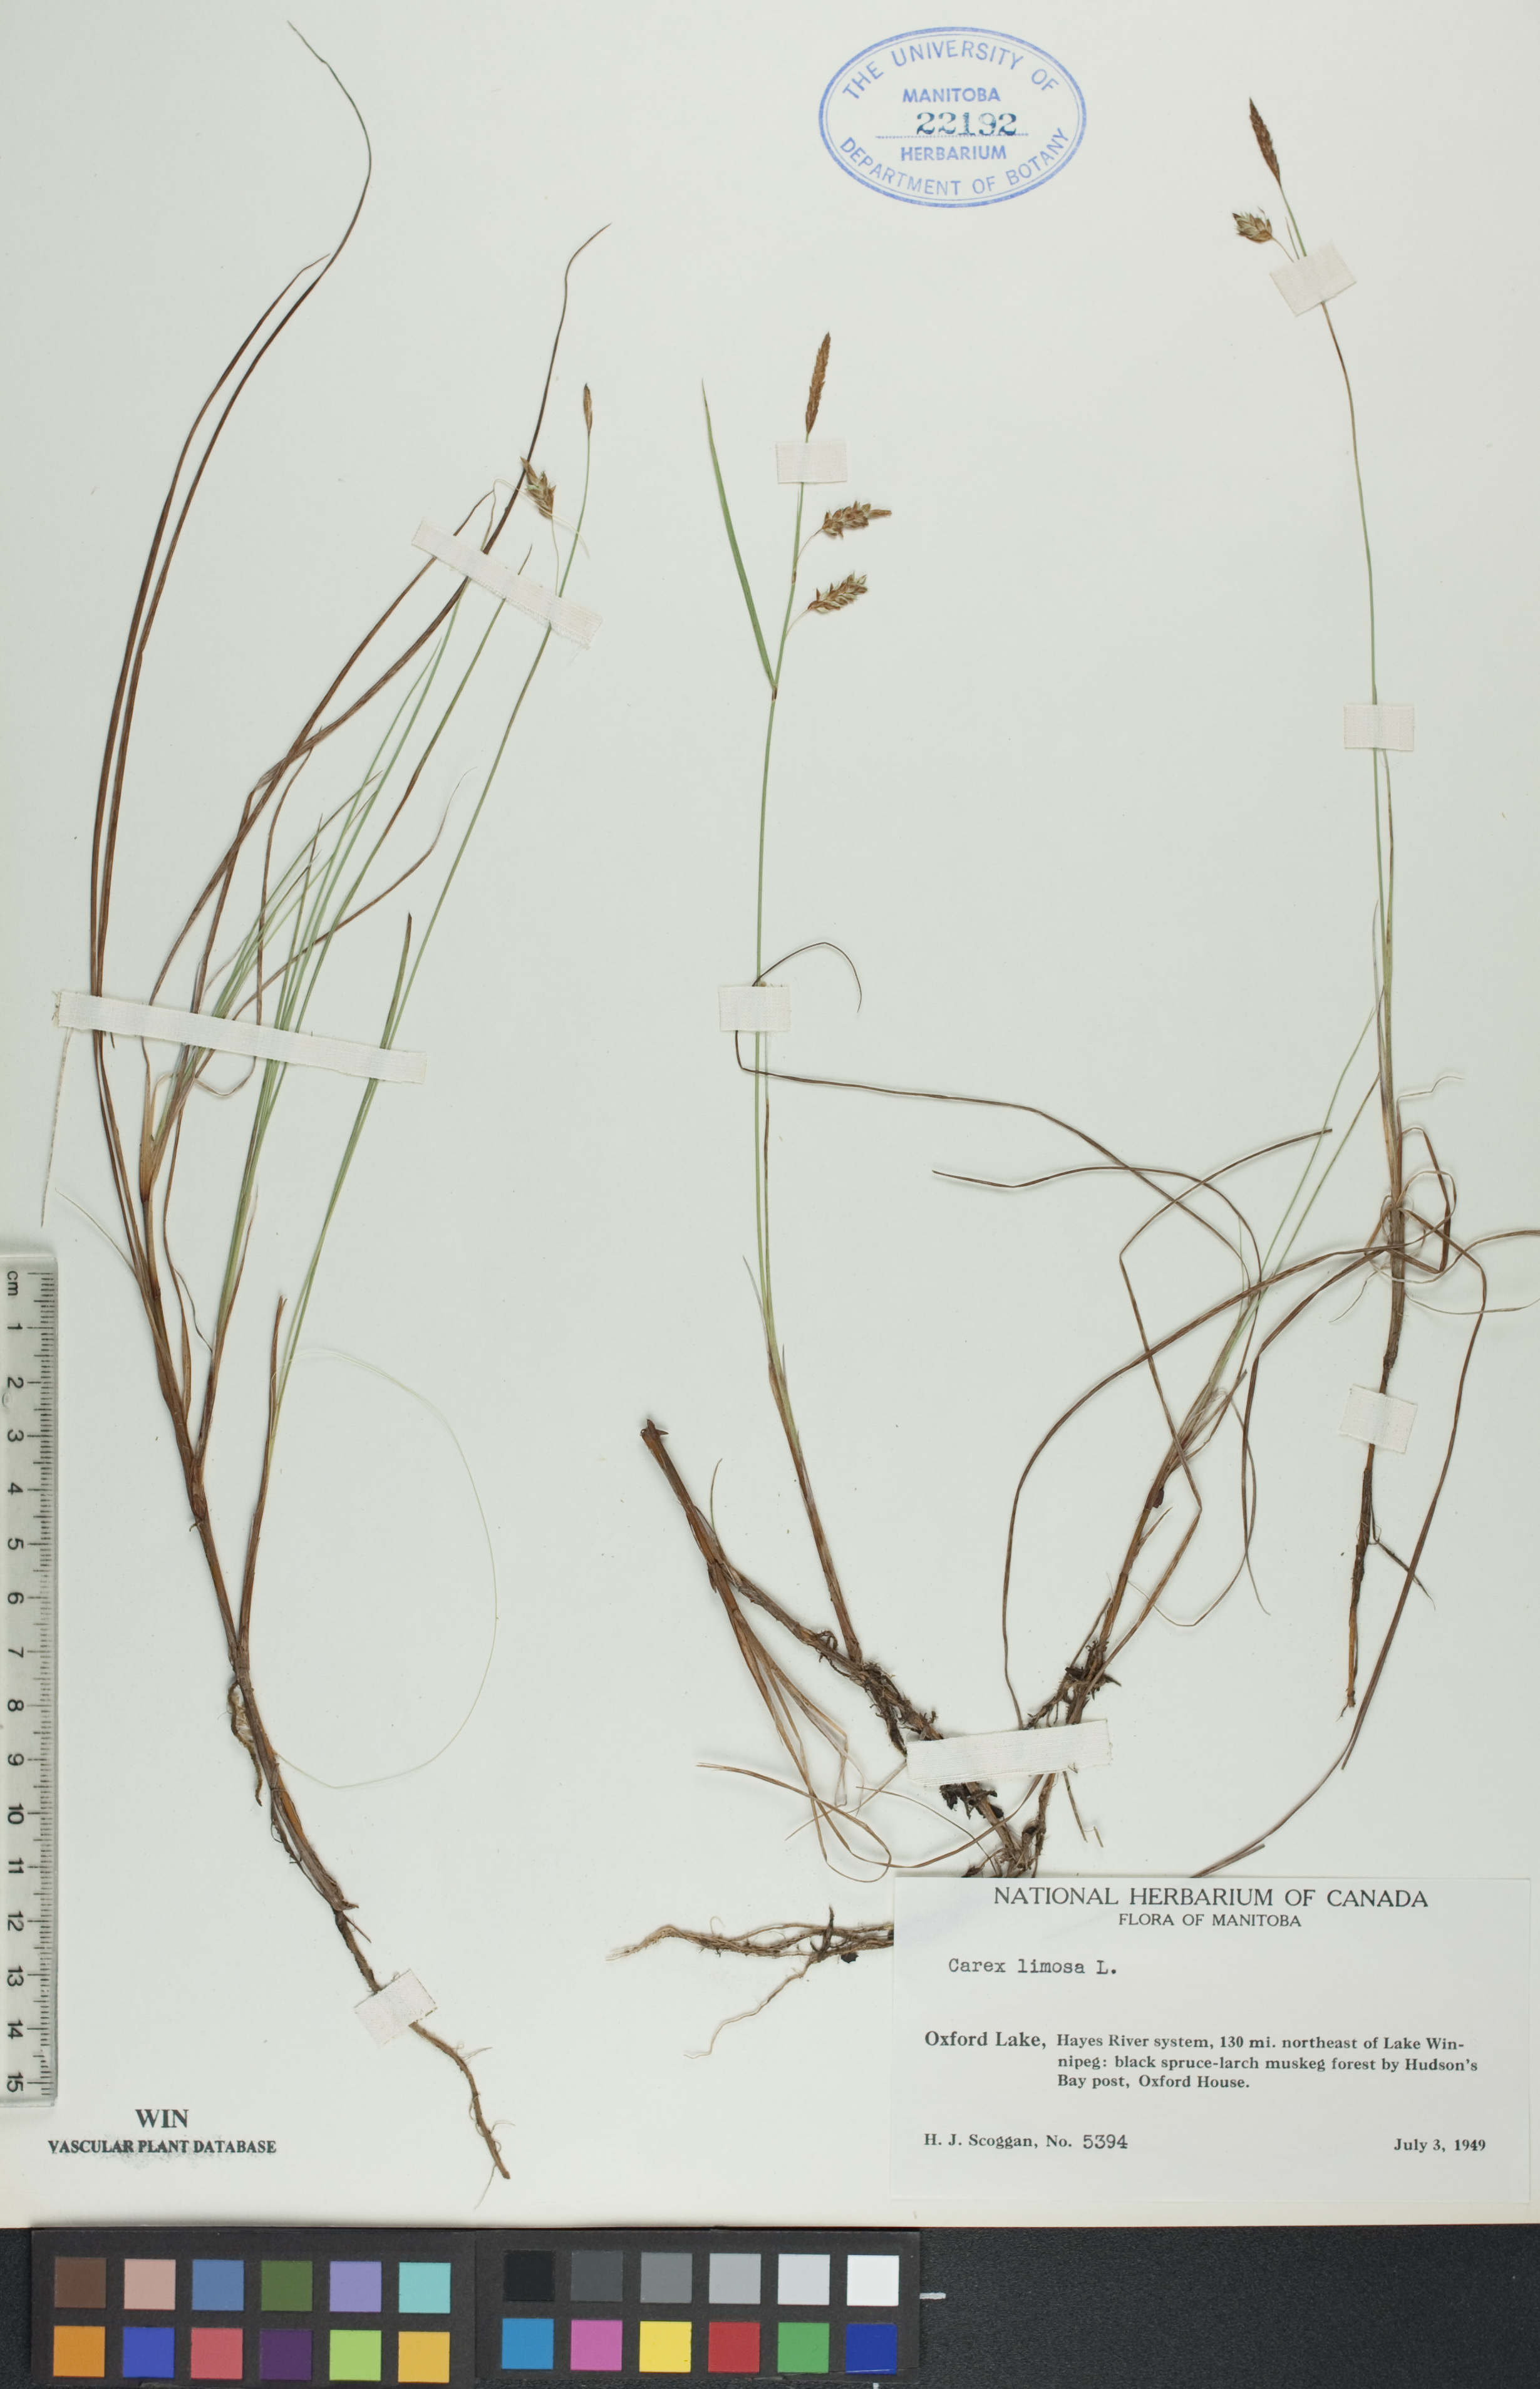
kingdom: Plantae
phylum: Tracheophyta
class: Liliopsida
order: Poales
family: Cyperaceae
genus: Carex
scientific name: Carex limosa
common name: Bog sedge
